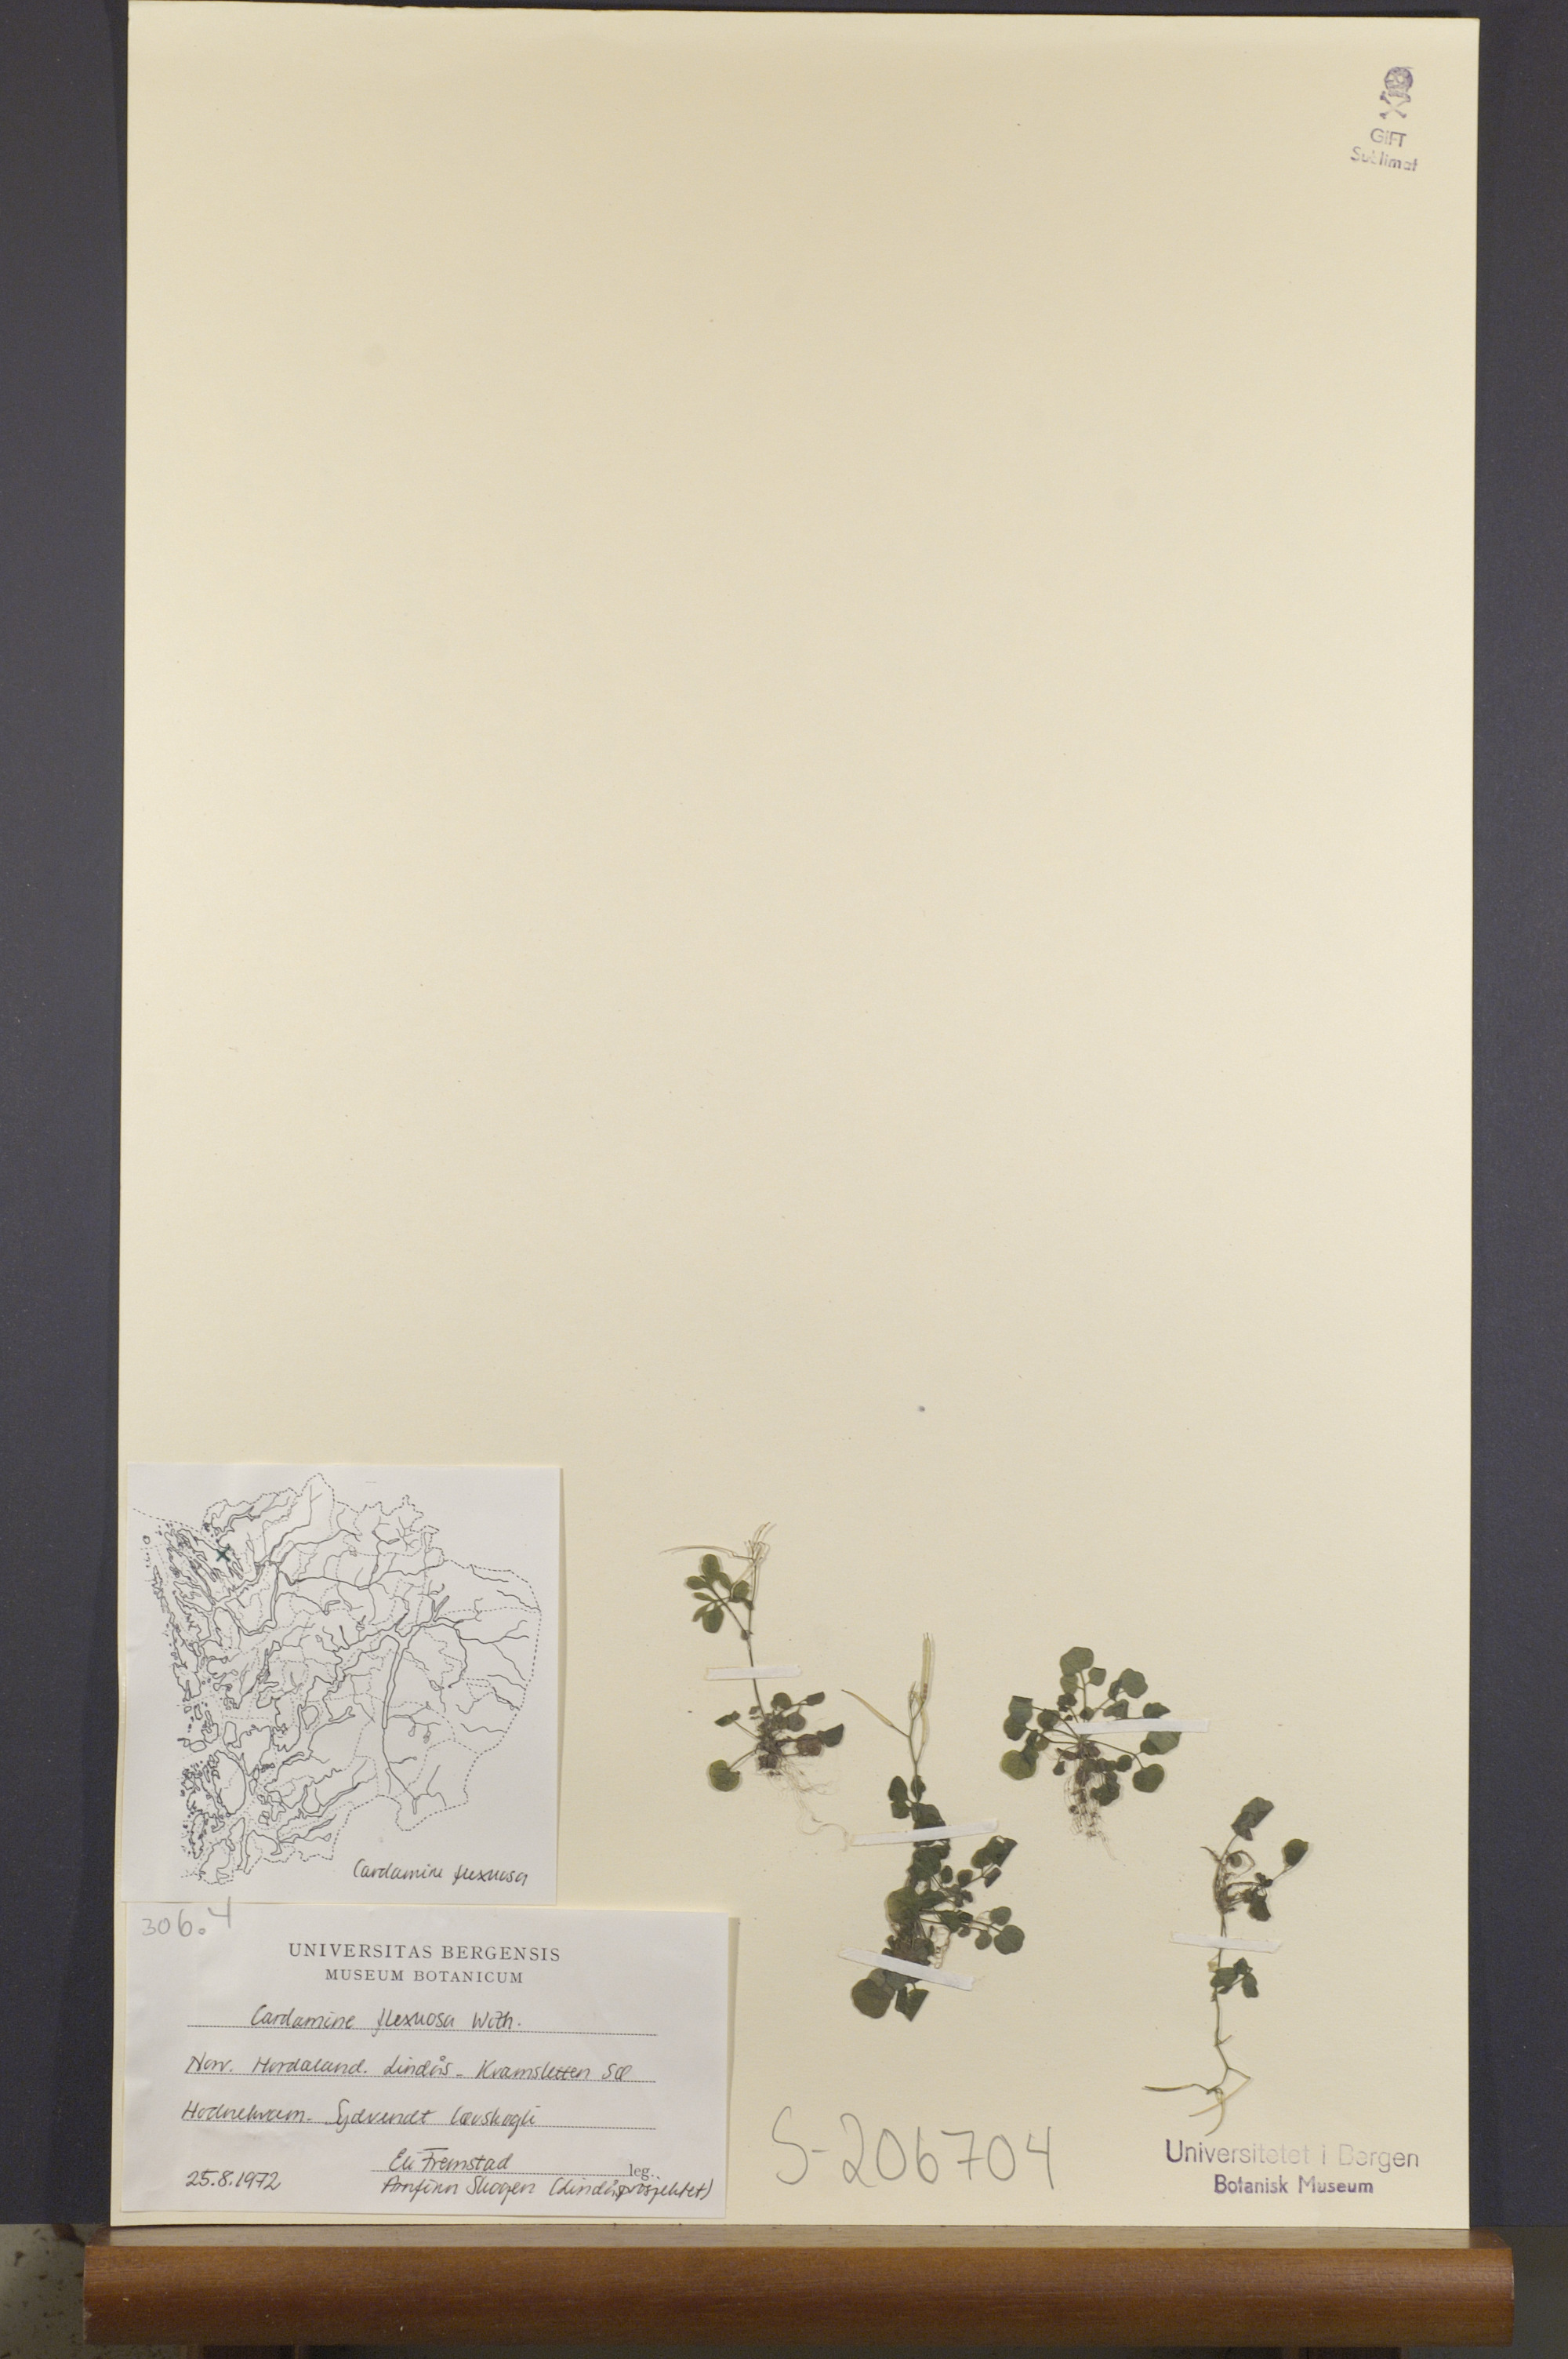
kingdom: Plantae
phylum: Tracheophyta
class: Magnoliopsida
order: Brassicales
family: Brassicaceae
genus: Cardamine
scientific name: Cardamine flexuosa
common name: Woodland bittercress
